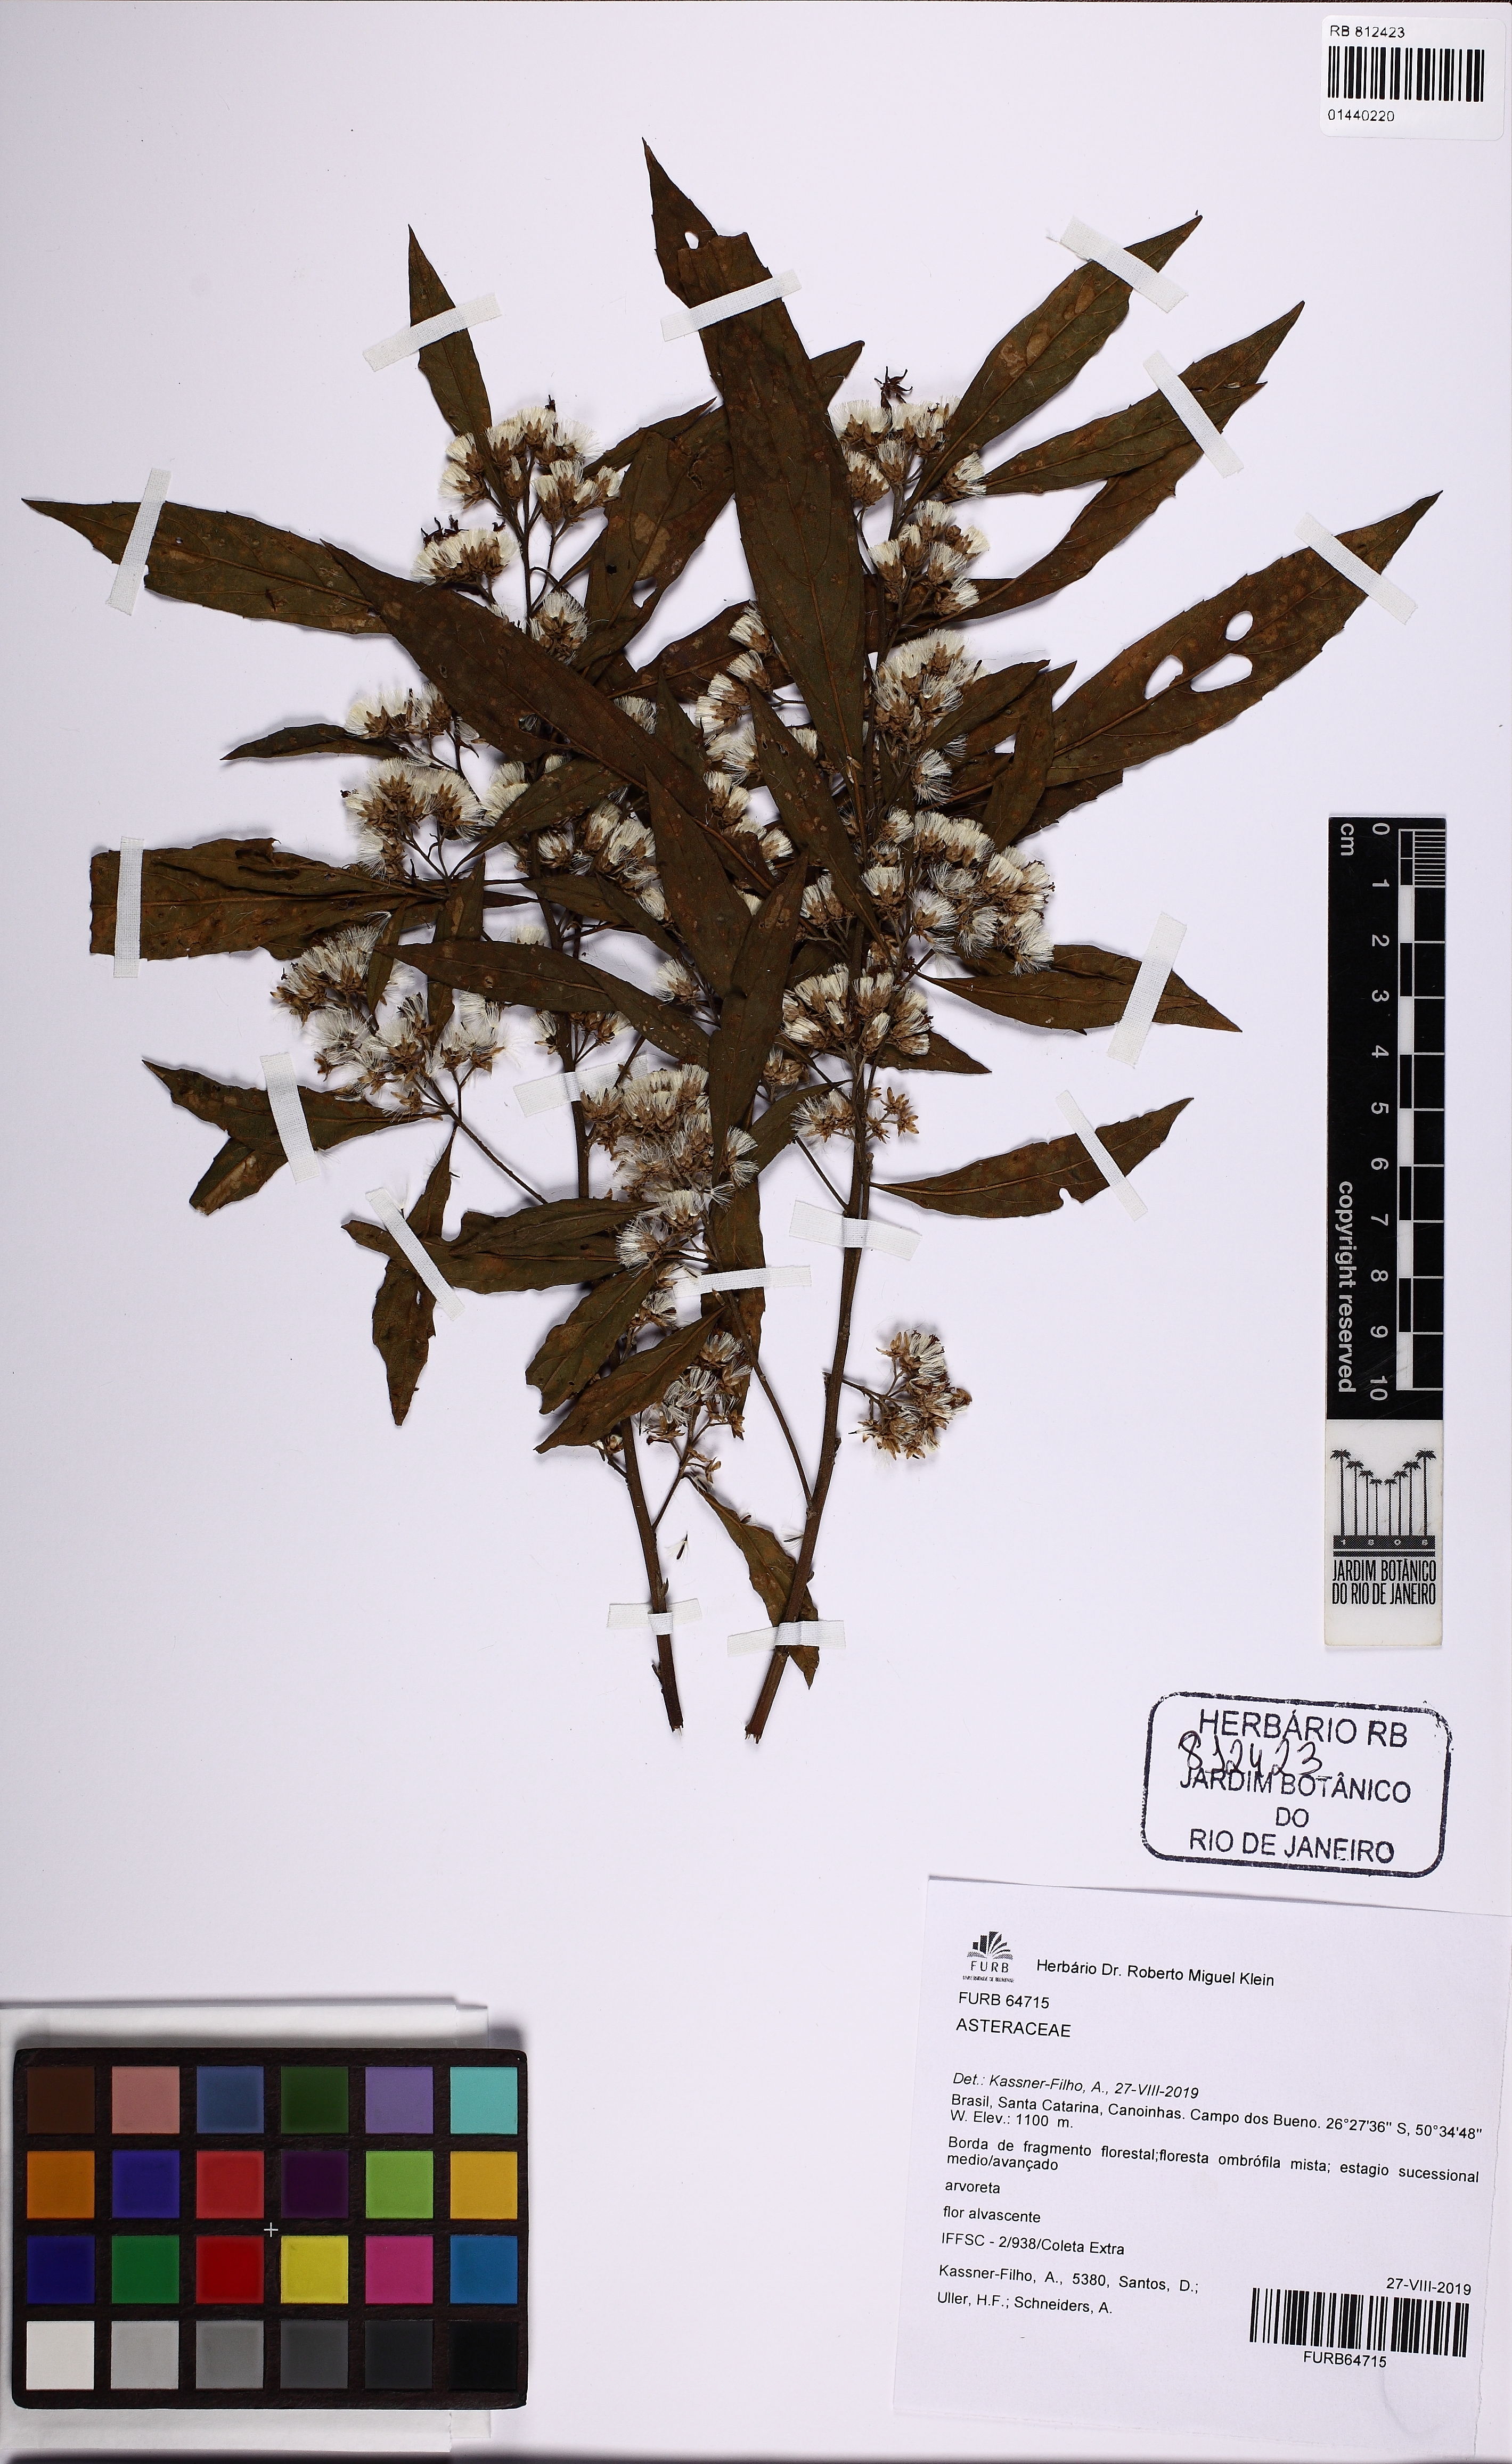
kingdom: Plantae
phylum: Tracheophyta
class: Magnoliopsida
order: Asterales
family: Asteraceae
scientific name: Asteraceae
